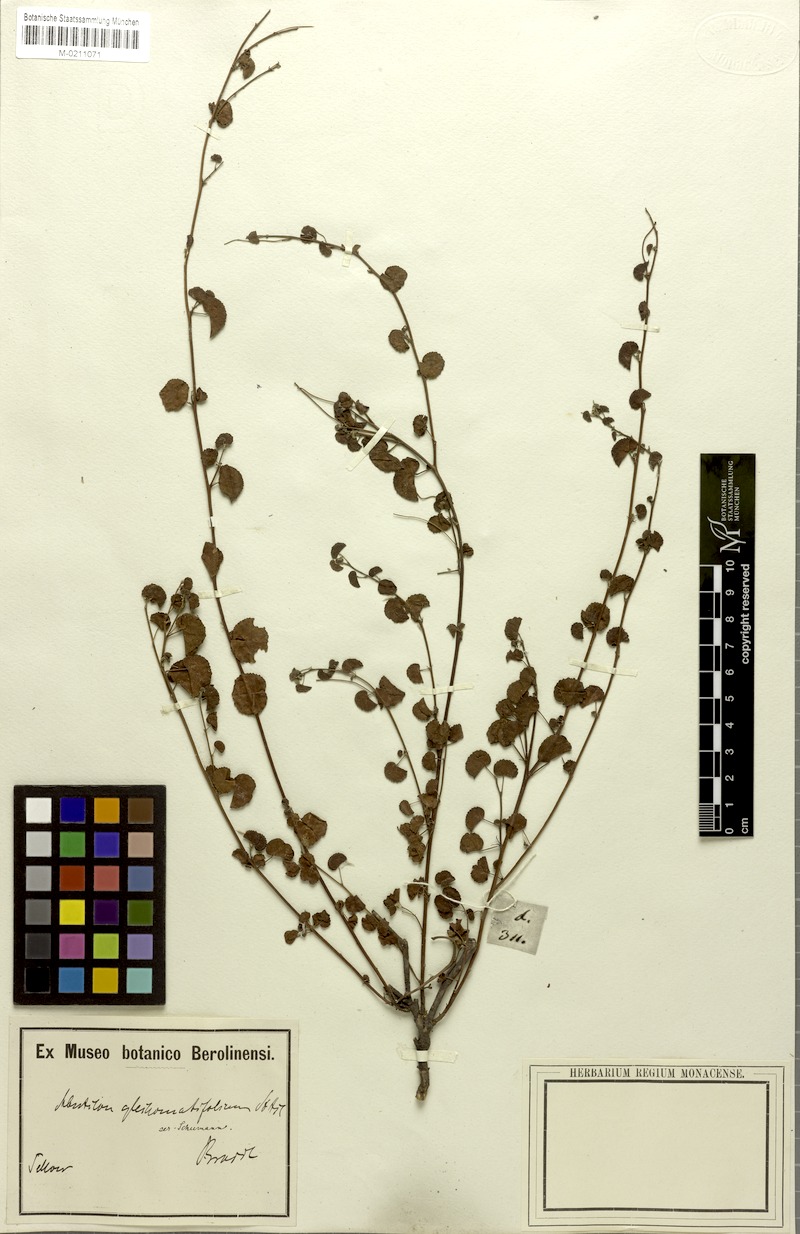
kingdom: Plantae
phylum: Tracheophyta
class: Magnoliopsida
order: Malvales
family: Malvaceae
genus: Wissadula
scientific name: Wissadula glechomifolia
